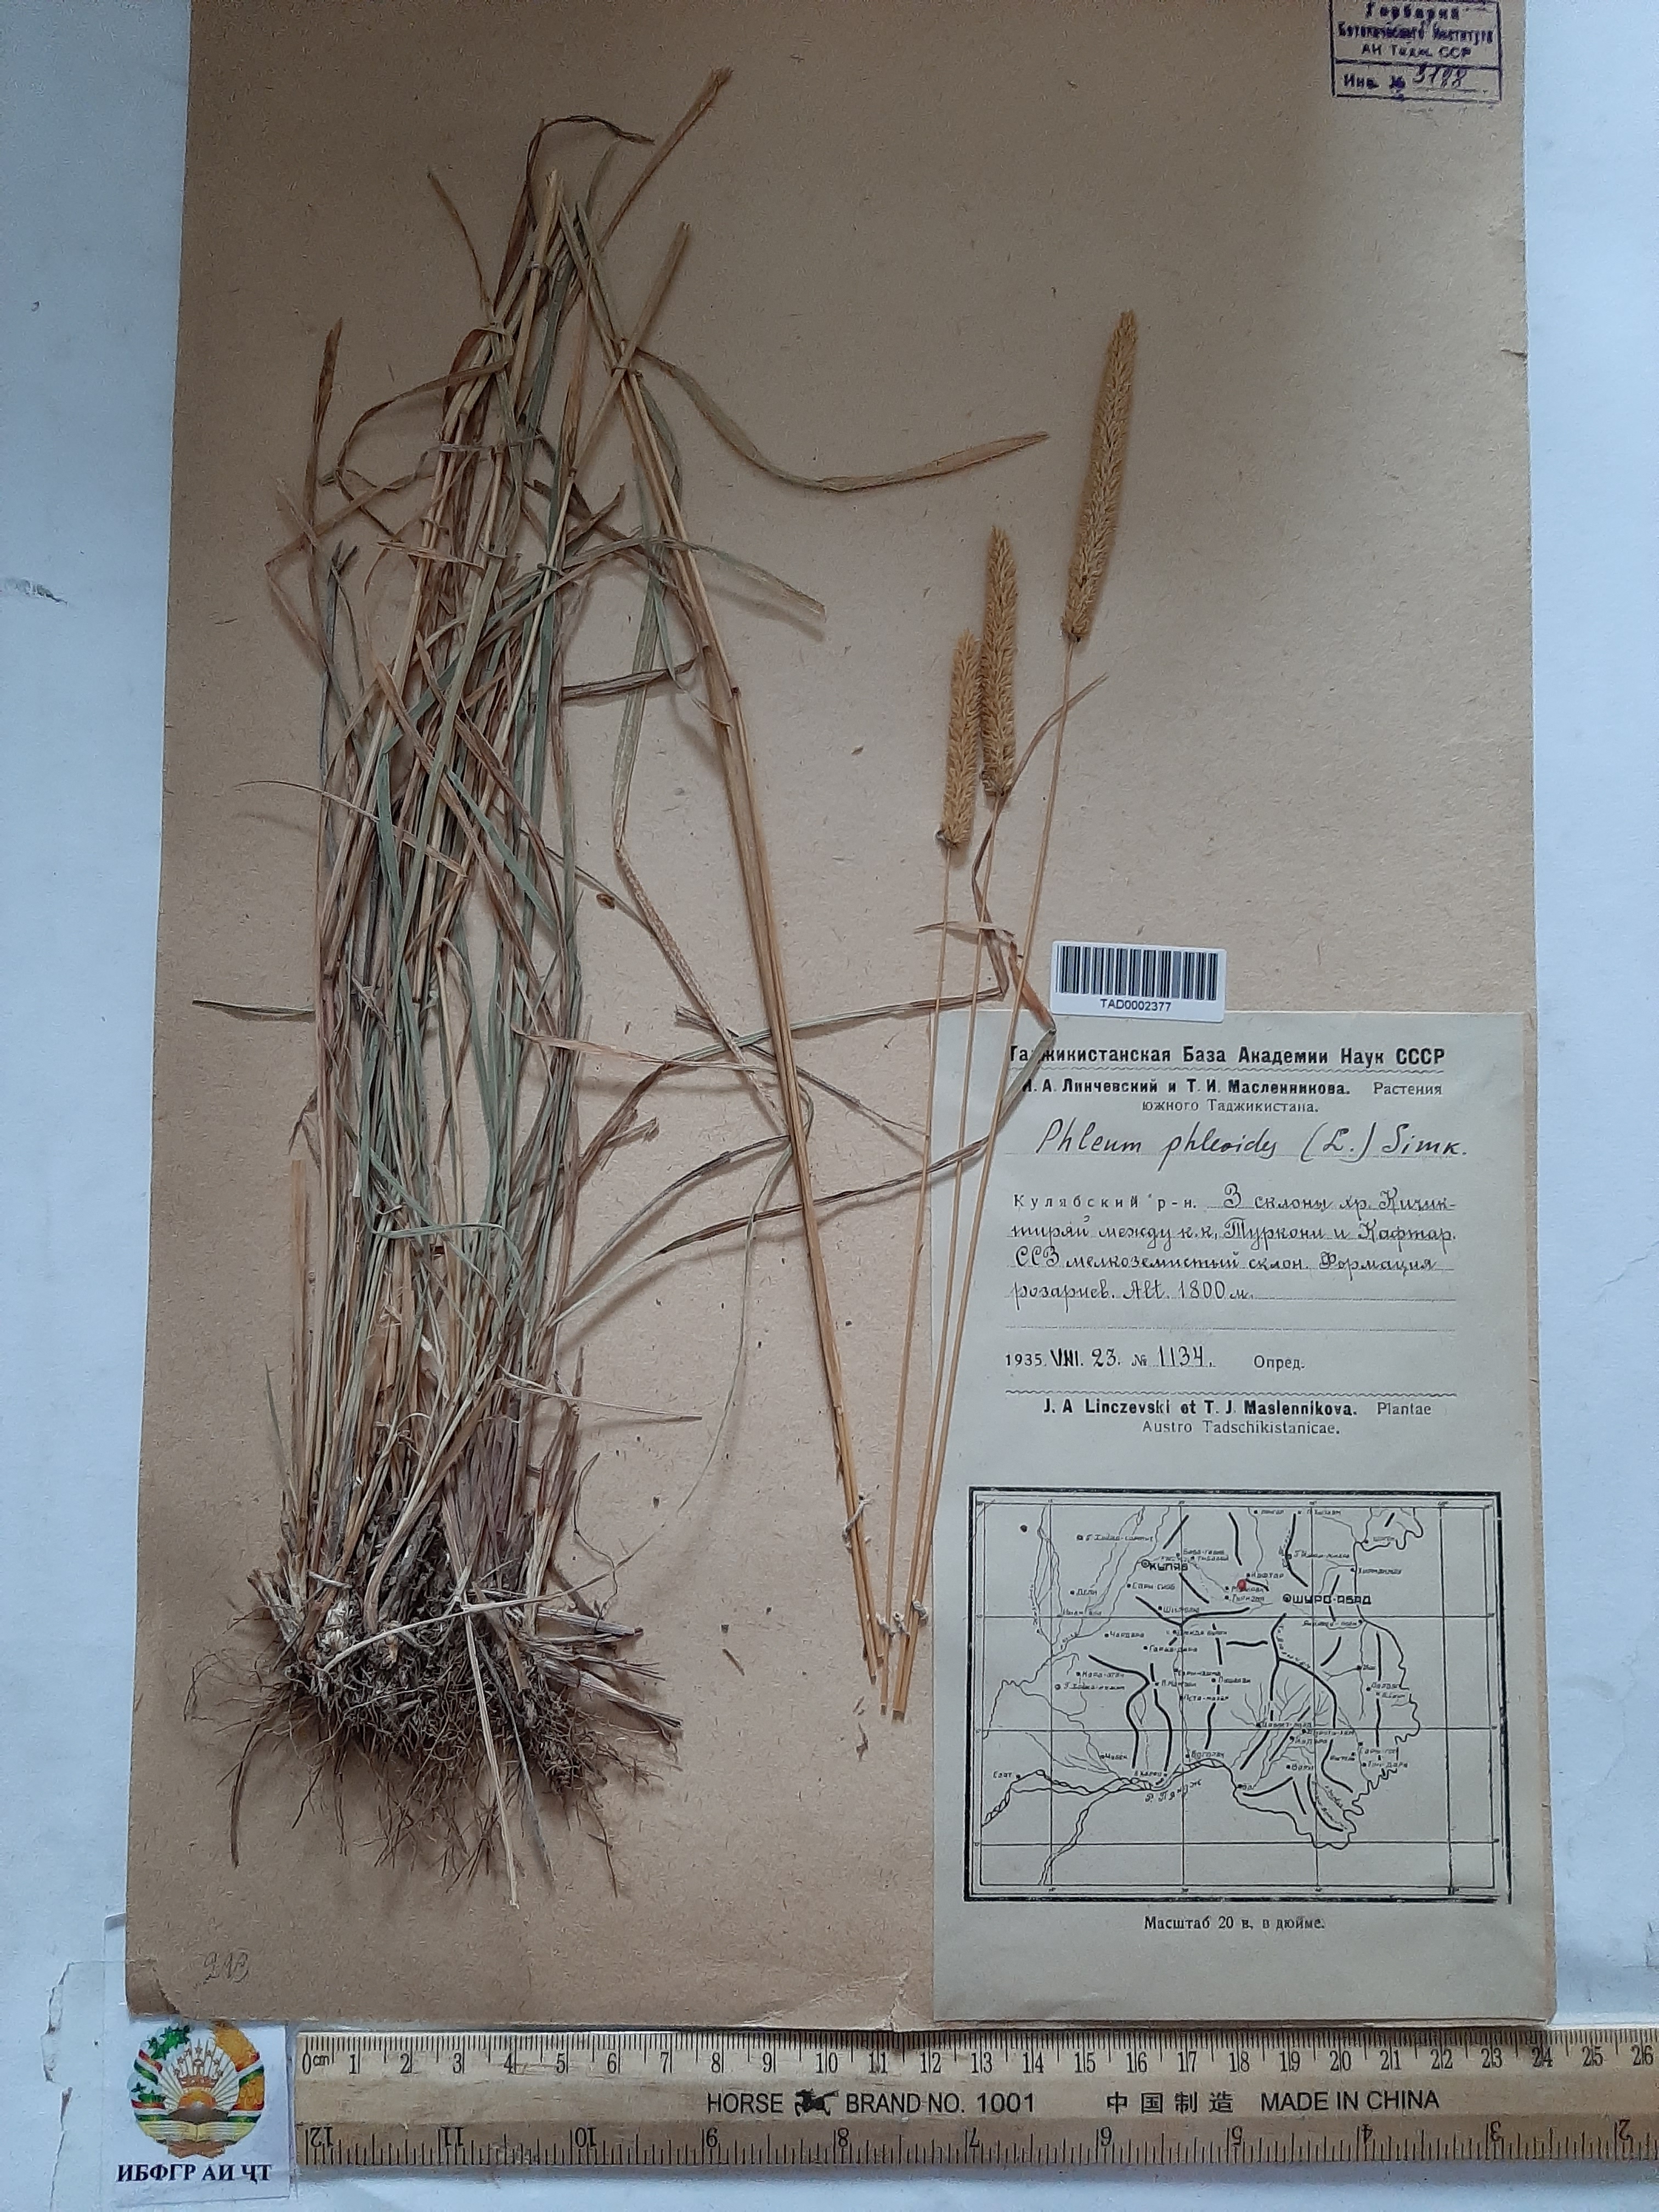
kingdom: Plantae
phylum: Tracheophyta
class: Liliopsida
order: Poales
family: Poaceae
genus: Phleum
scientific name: Phleum phleoides
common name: Purple-stem cat's-tail
